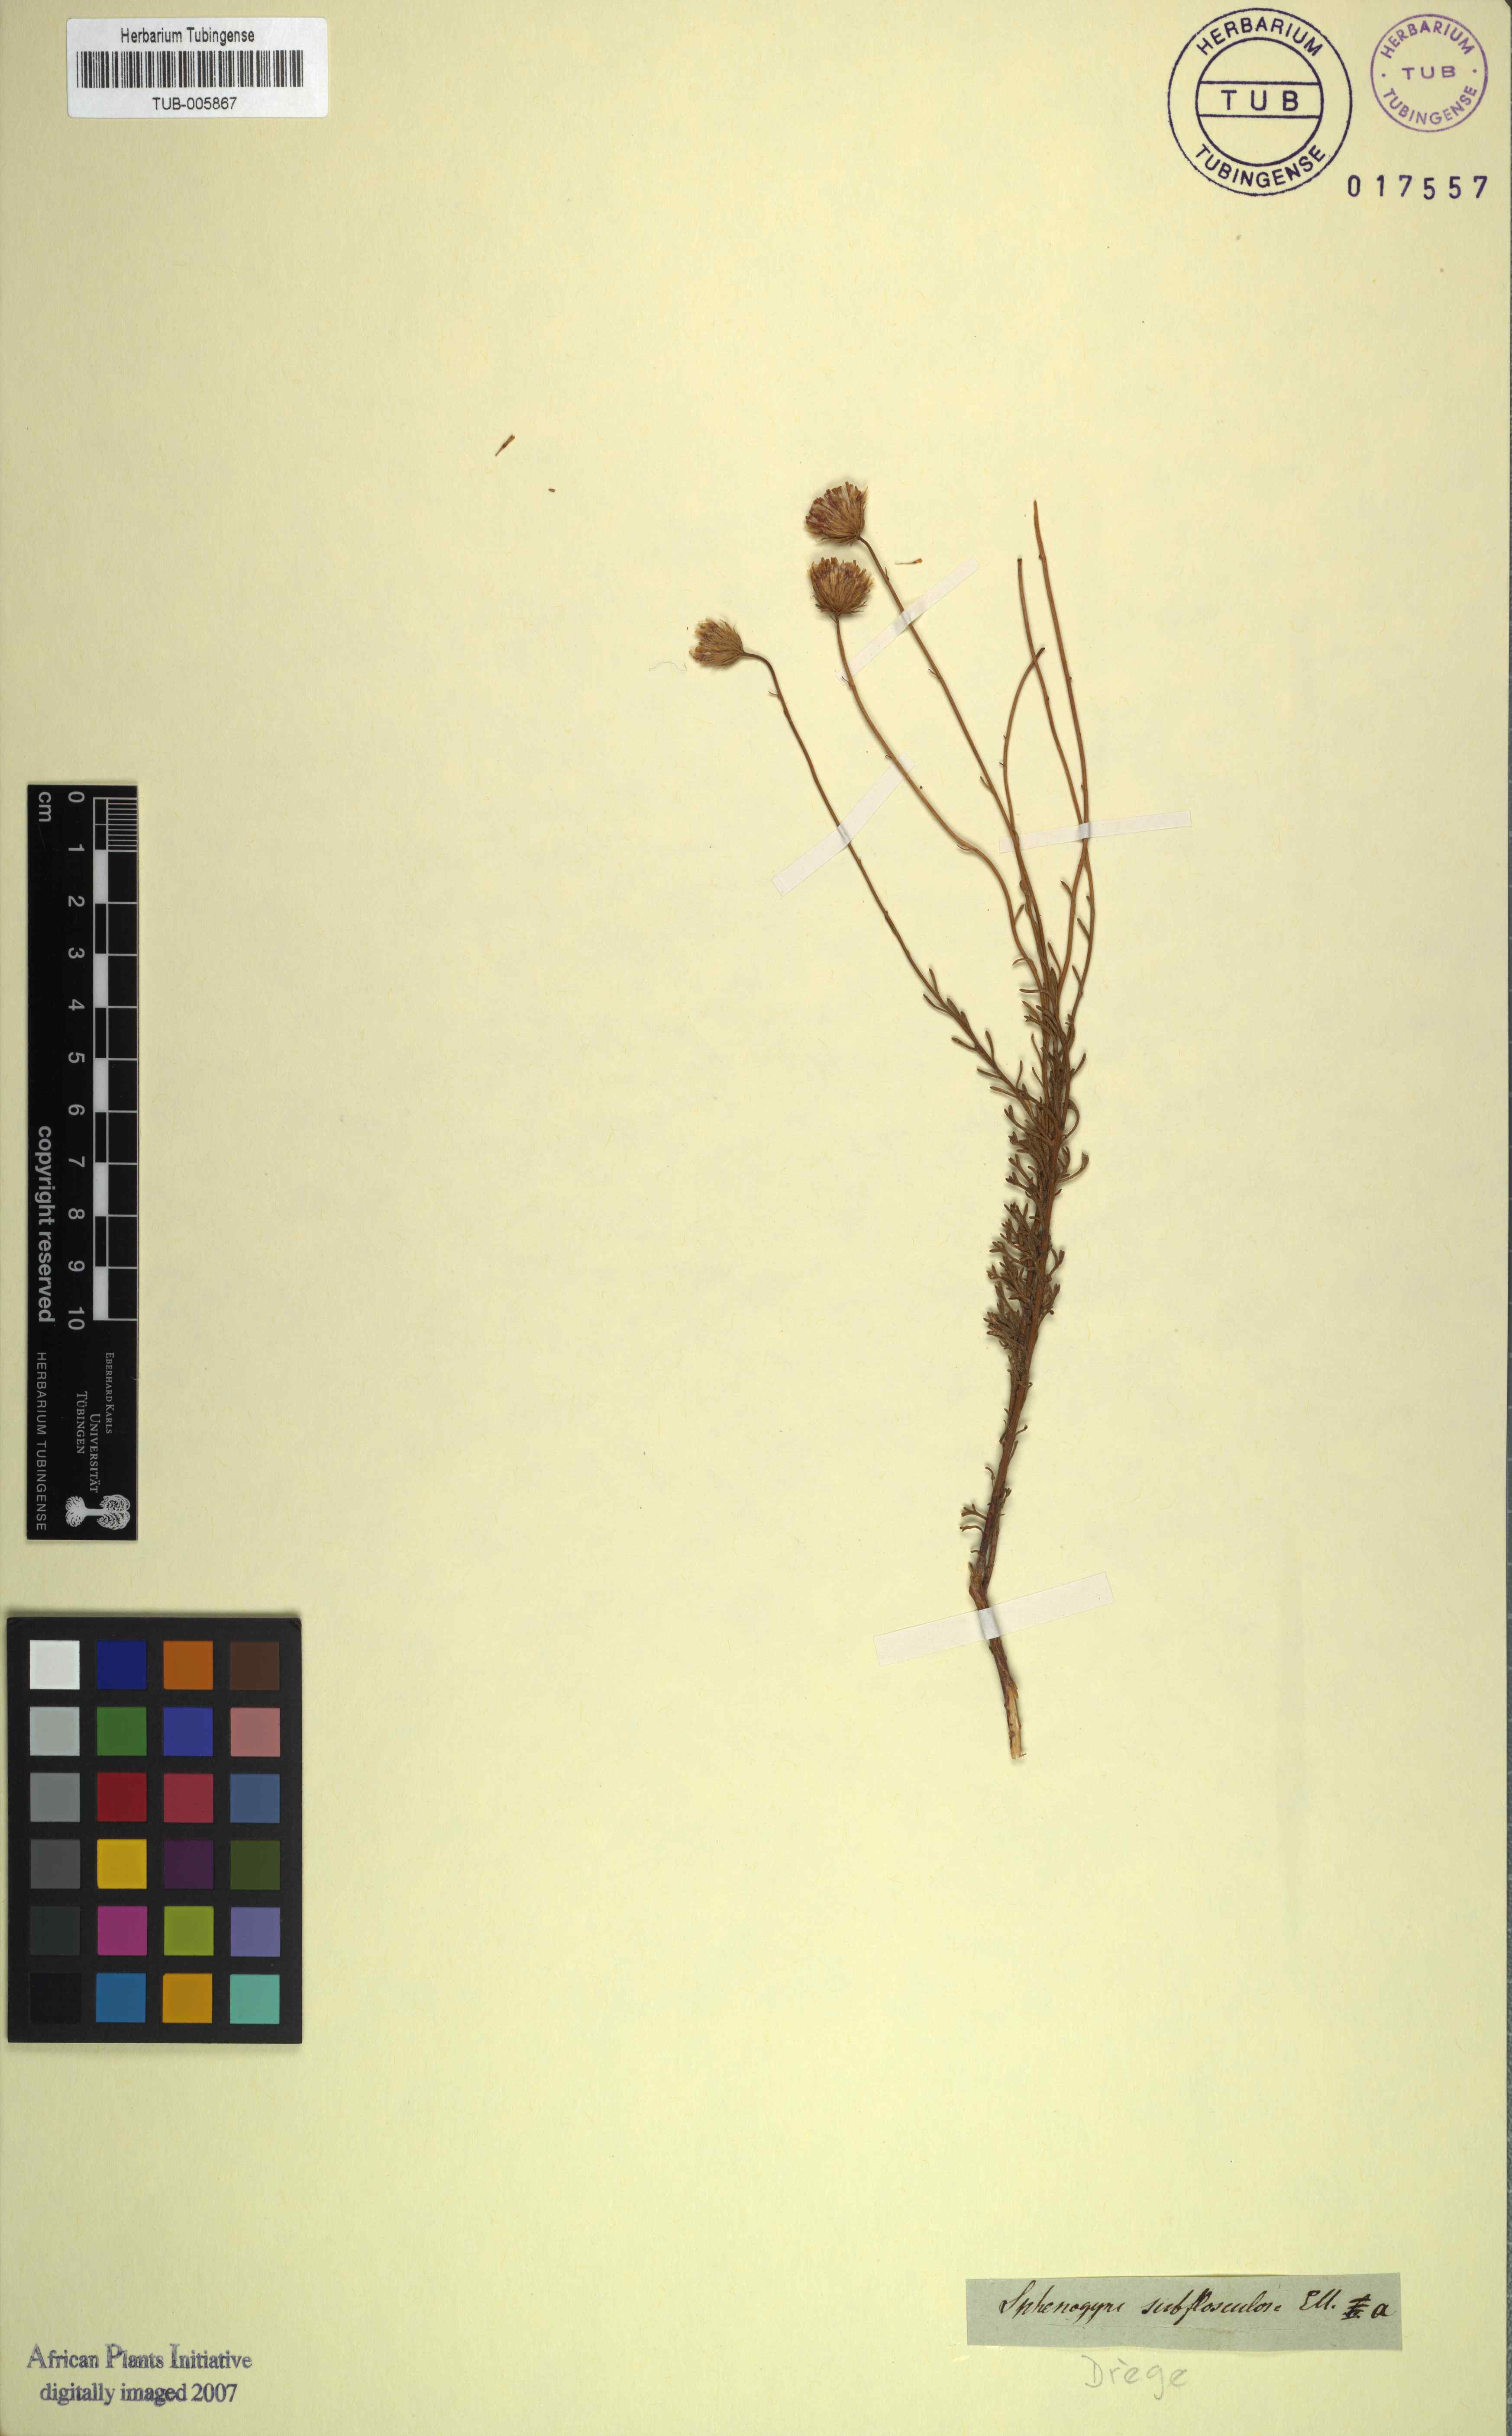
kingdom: Plantae
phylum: Tracheophyta
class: Magnoliopsida
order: Asterales
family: Asteraceae
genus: Ursinia
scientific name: Ursinia paleacea
